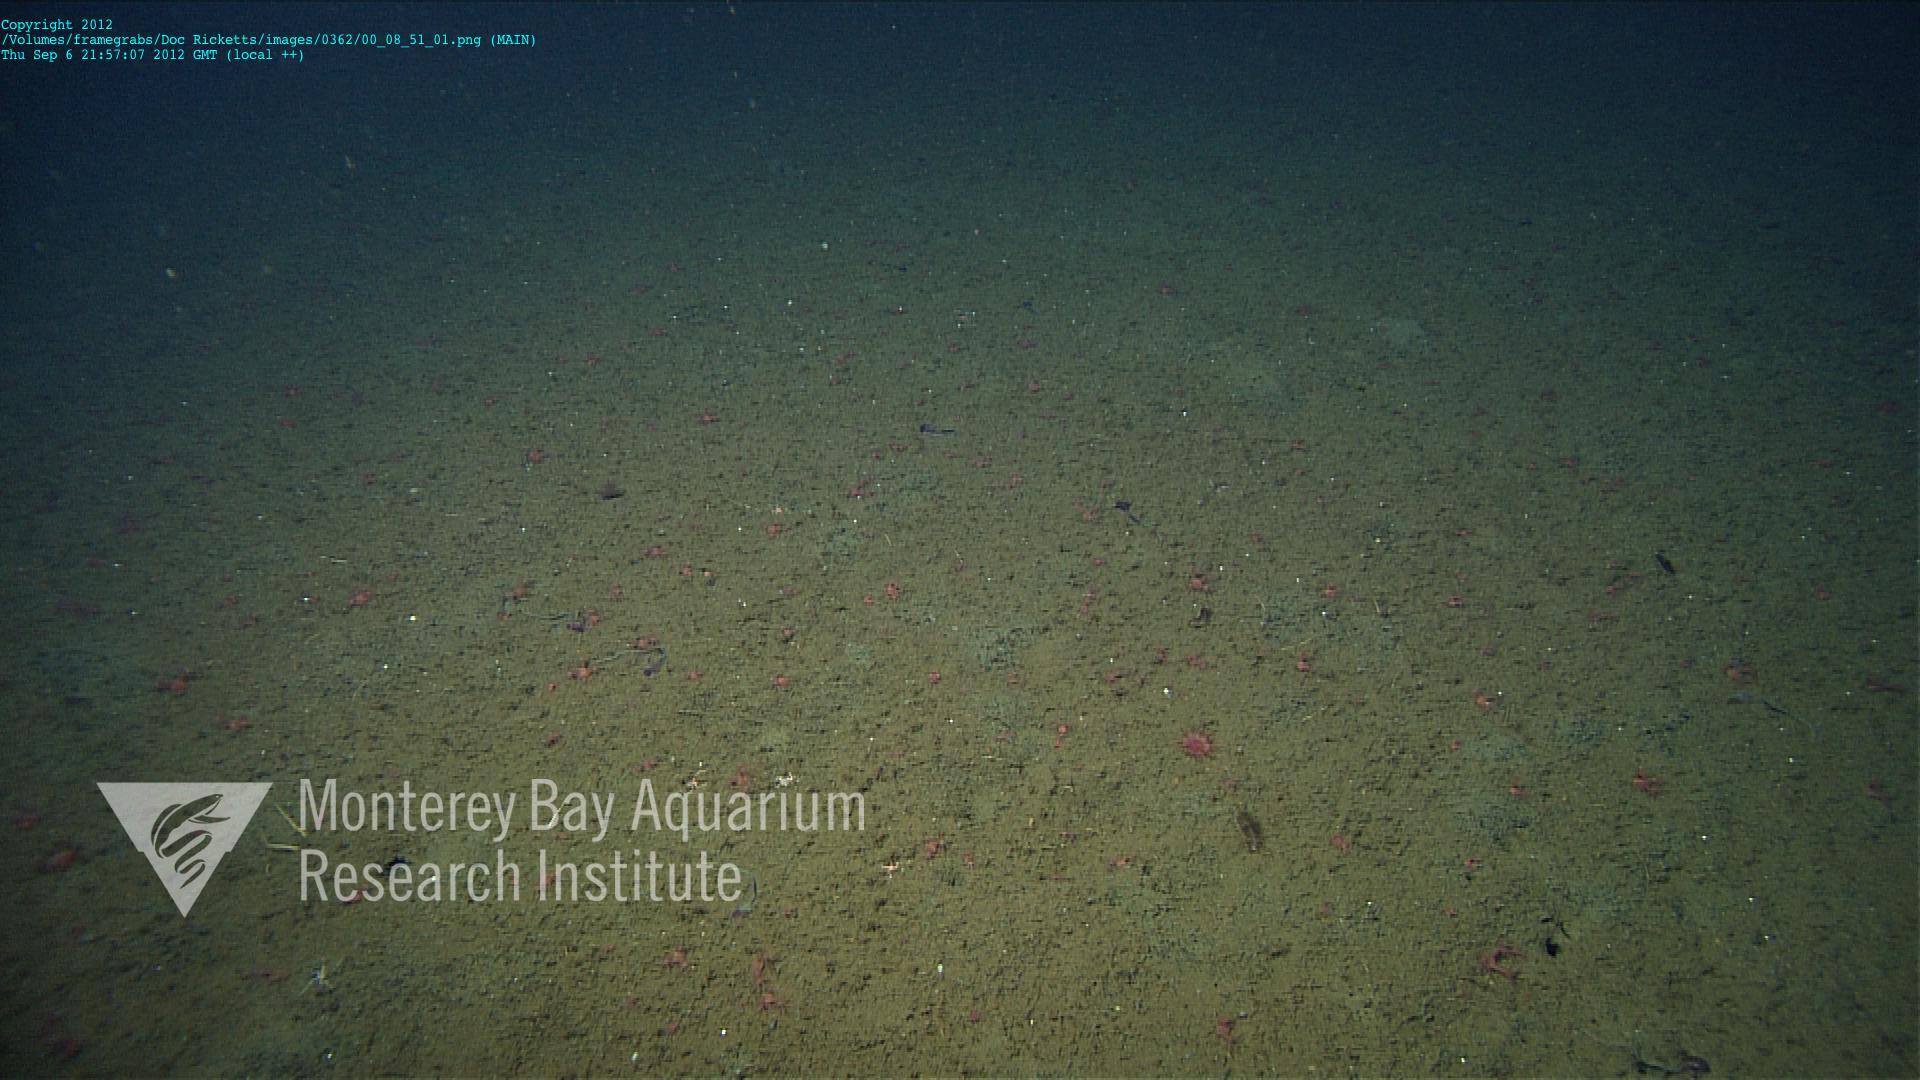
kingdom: Animalia
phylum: Cnidaria
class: Anthozoa
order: Scleralcyonacea
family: Coralliidae
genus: Heteropolypus
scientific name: Heteropolypus
